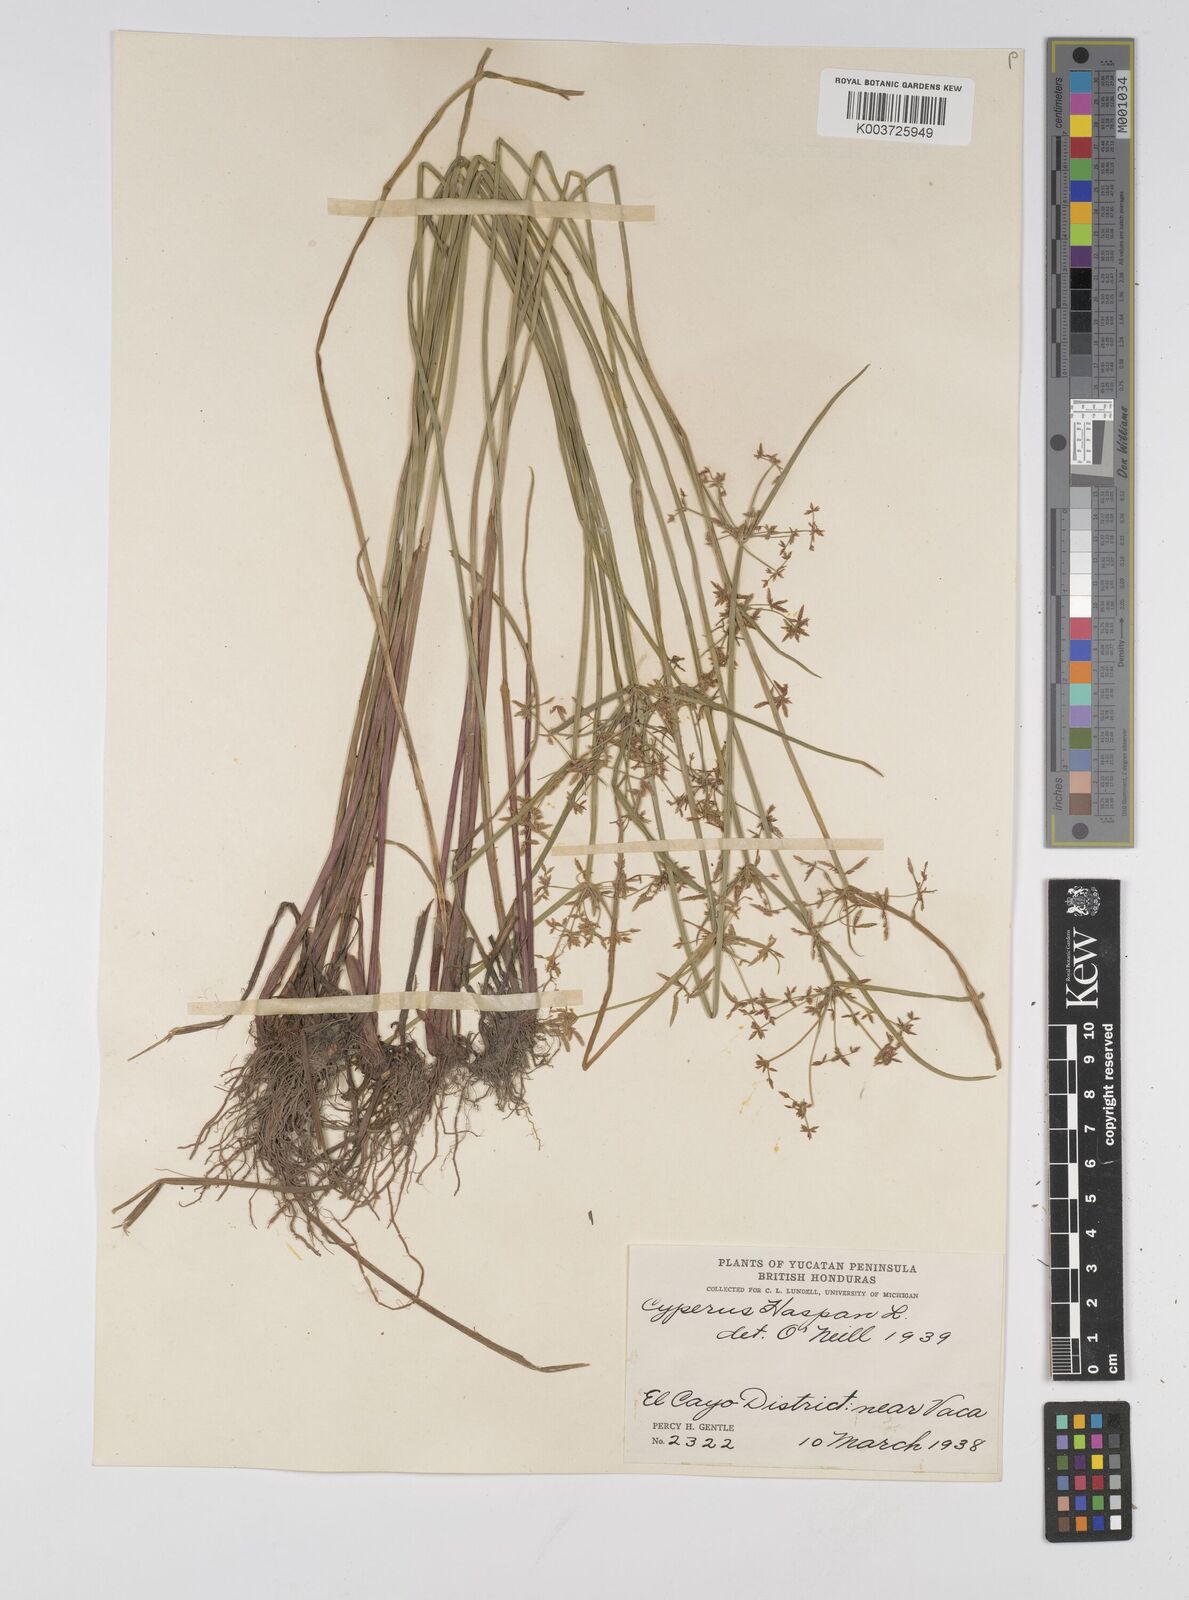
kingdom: Plantae
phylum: Tracheophyta
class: Liliopsida
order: Poales
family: Cyperaceae
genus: Cyperus
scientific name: Cyperus haspan
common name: Haspan flatsedge
